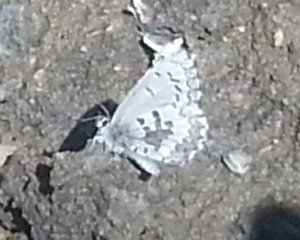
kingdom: Animalia
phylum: Arthropoda
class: Insecta
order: Lepidoptera
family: Lycaenidae
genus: Celastrina
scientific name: Celastrina lucia
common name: Northern Spring Azure
